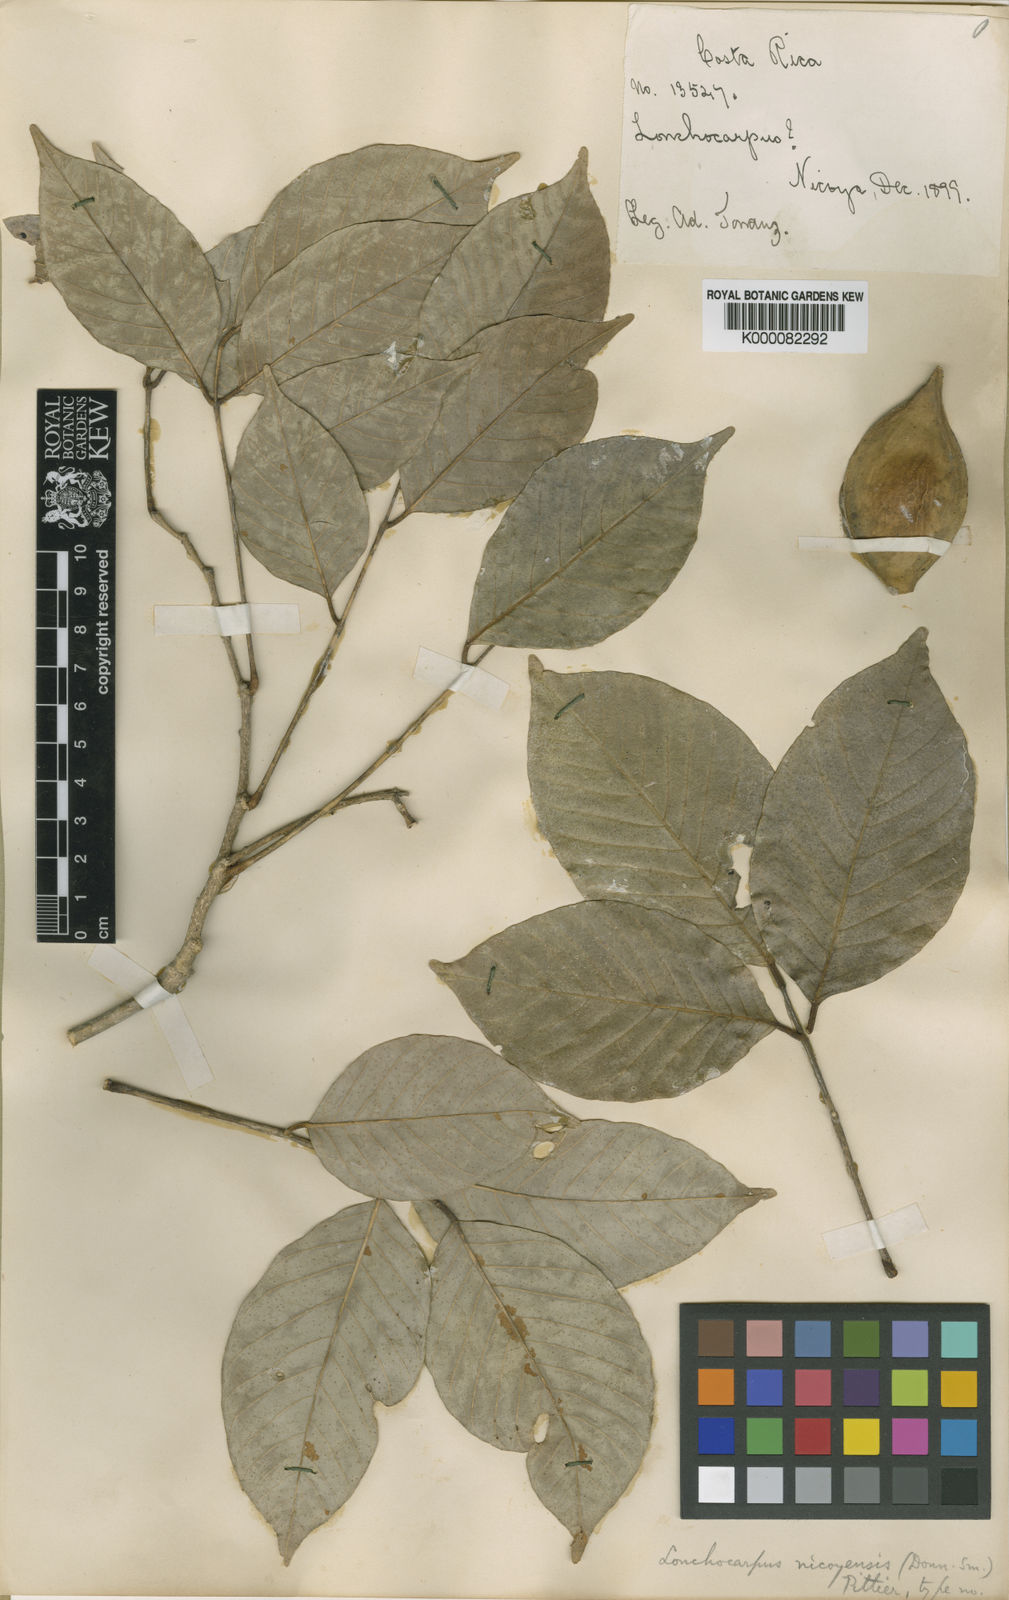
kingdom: Plantae
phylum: Tracheophyta
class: Magnoliopsida
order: Fabales
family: Fabaceae
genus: Lonchocarpus
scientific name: Lonchocarpus acuminatus
